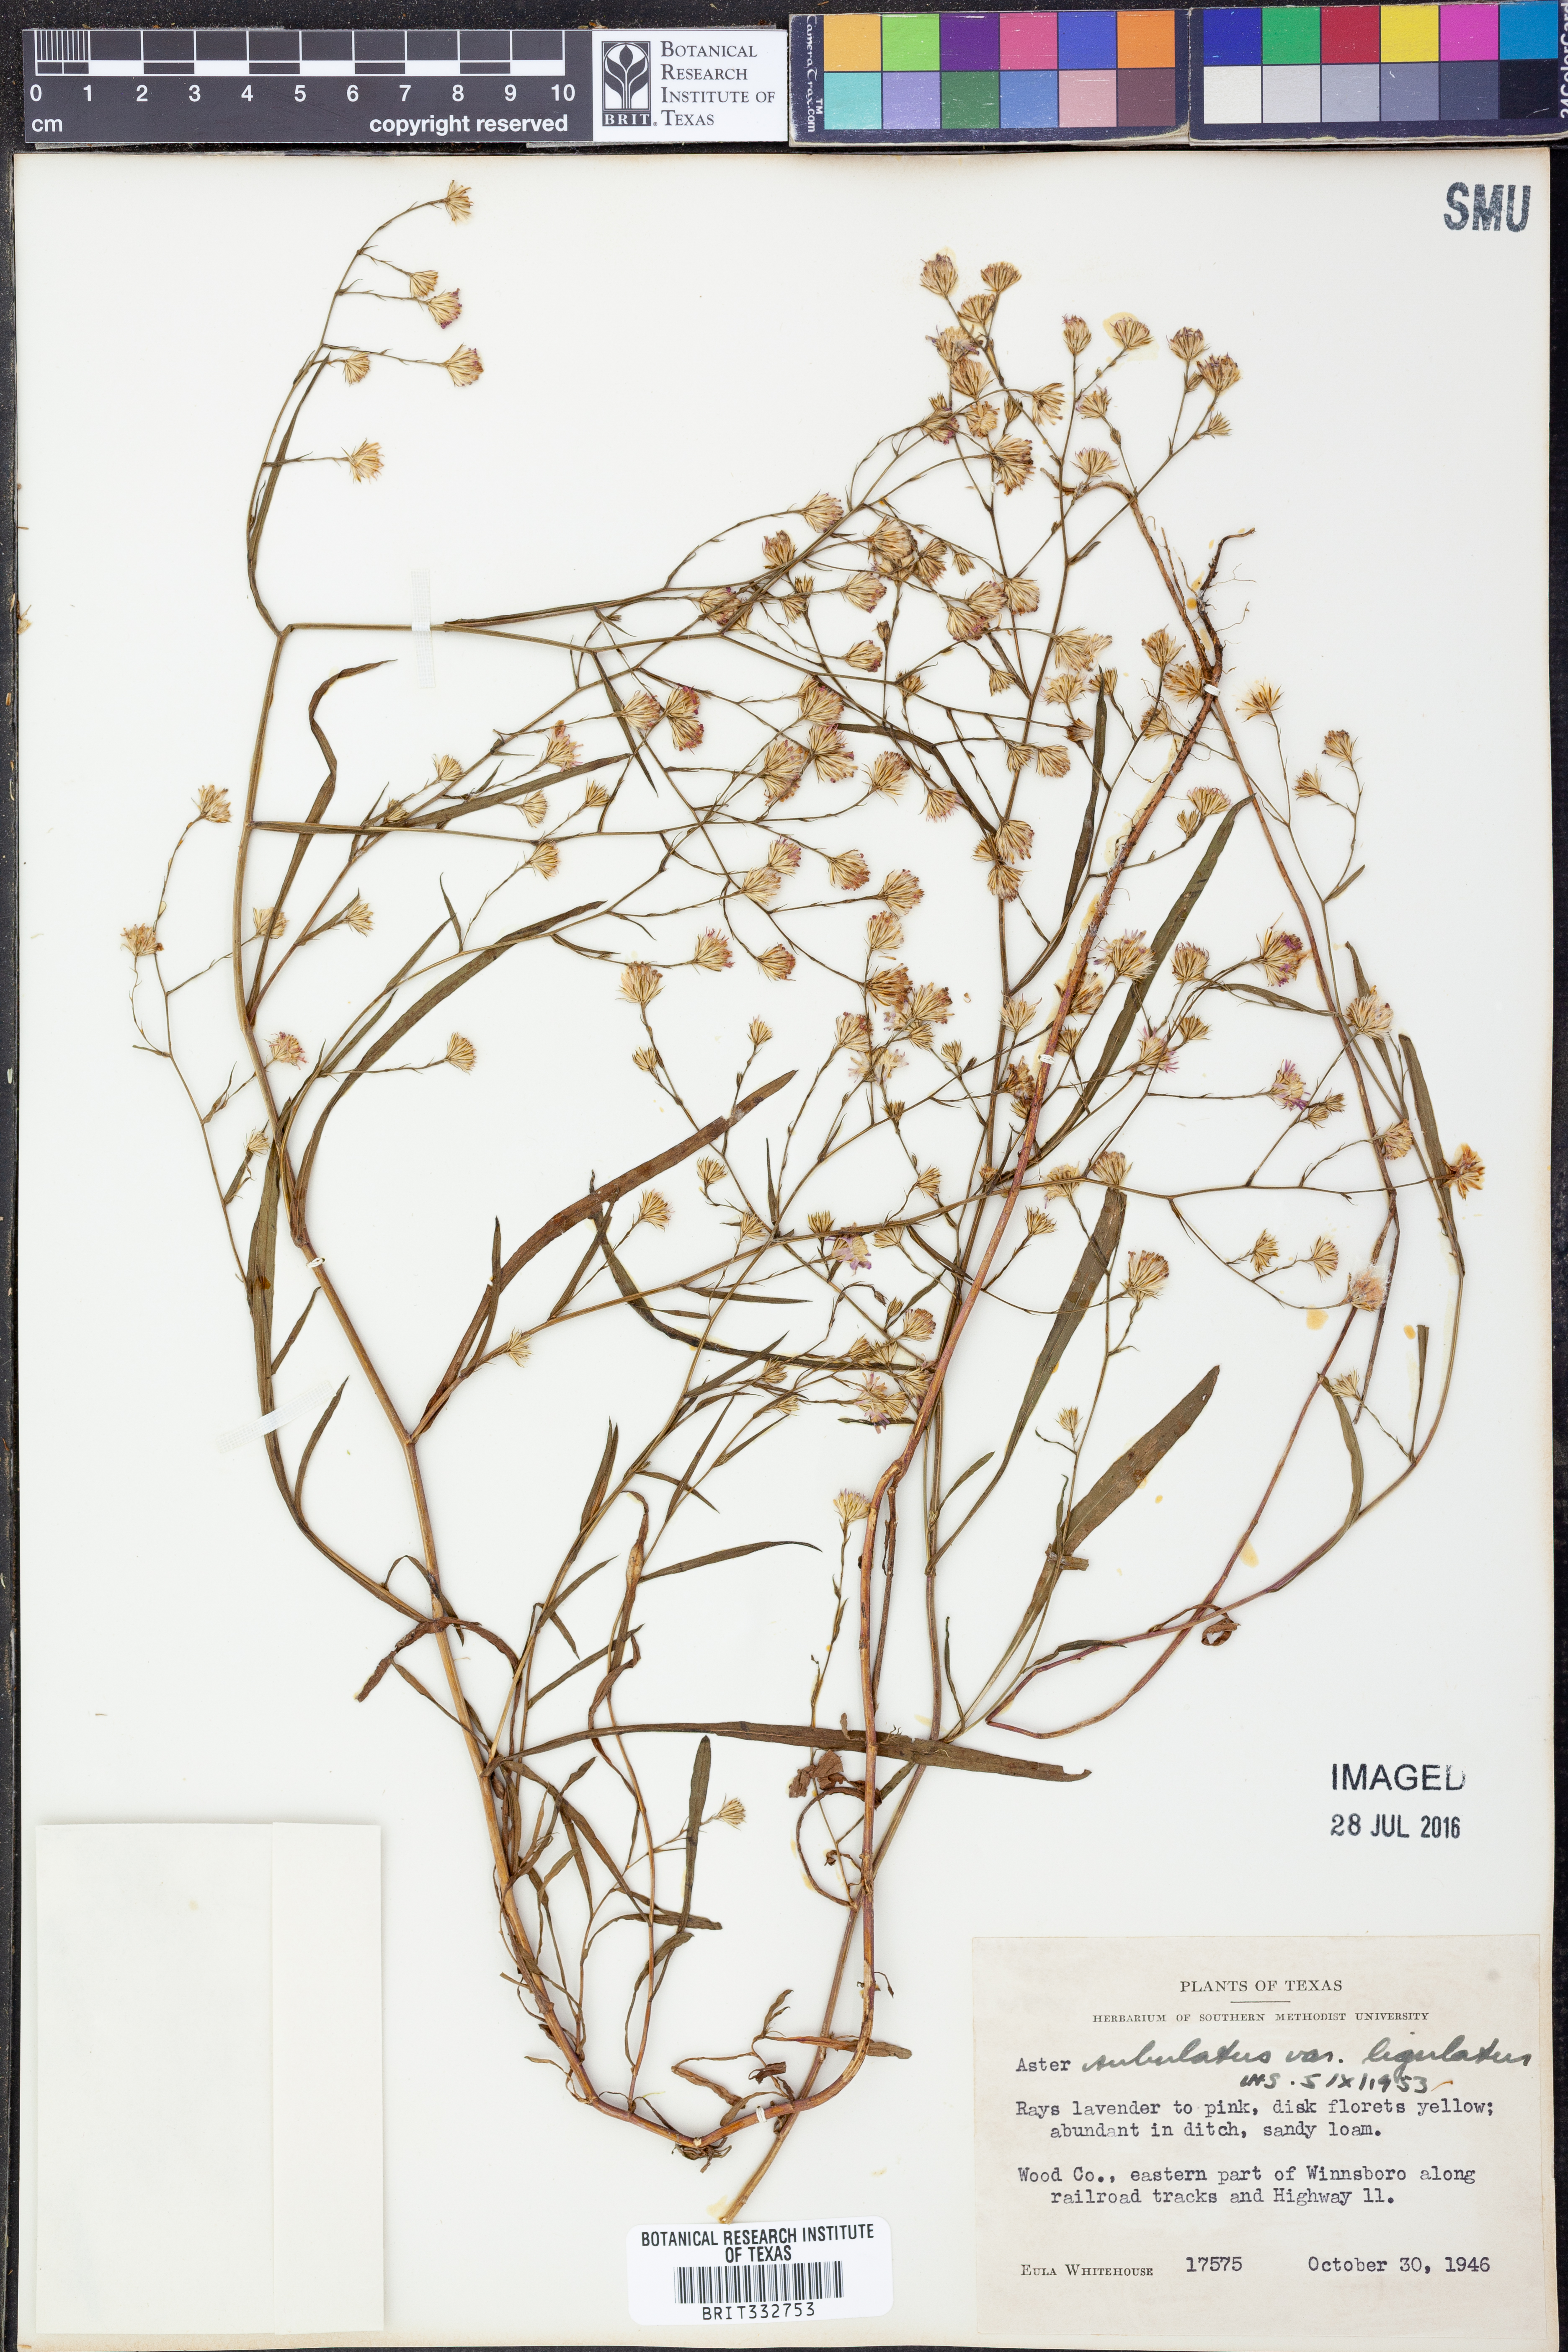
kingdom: Plantae
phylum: Tracheophyta
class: Magnoliopsida
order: Asterales
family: Asteraceae
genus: Symphyotrichum
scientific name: Symphyotrichum divaricatum
